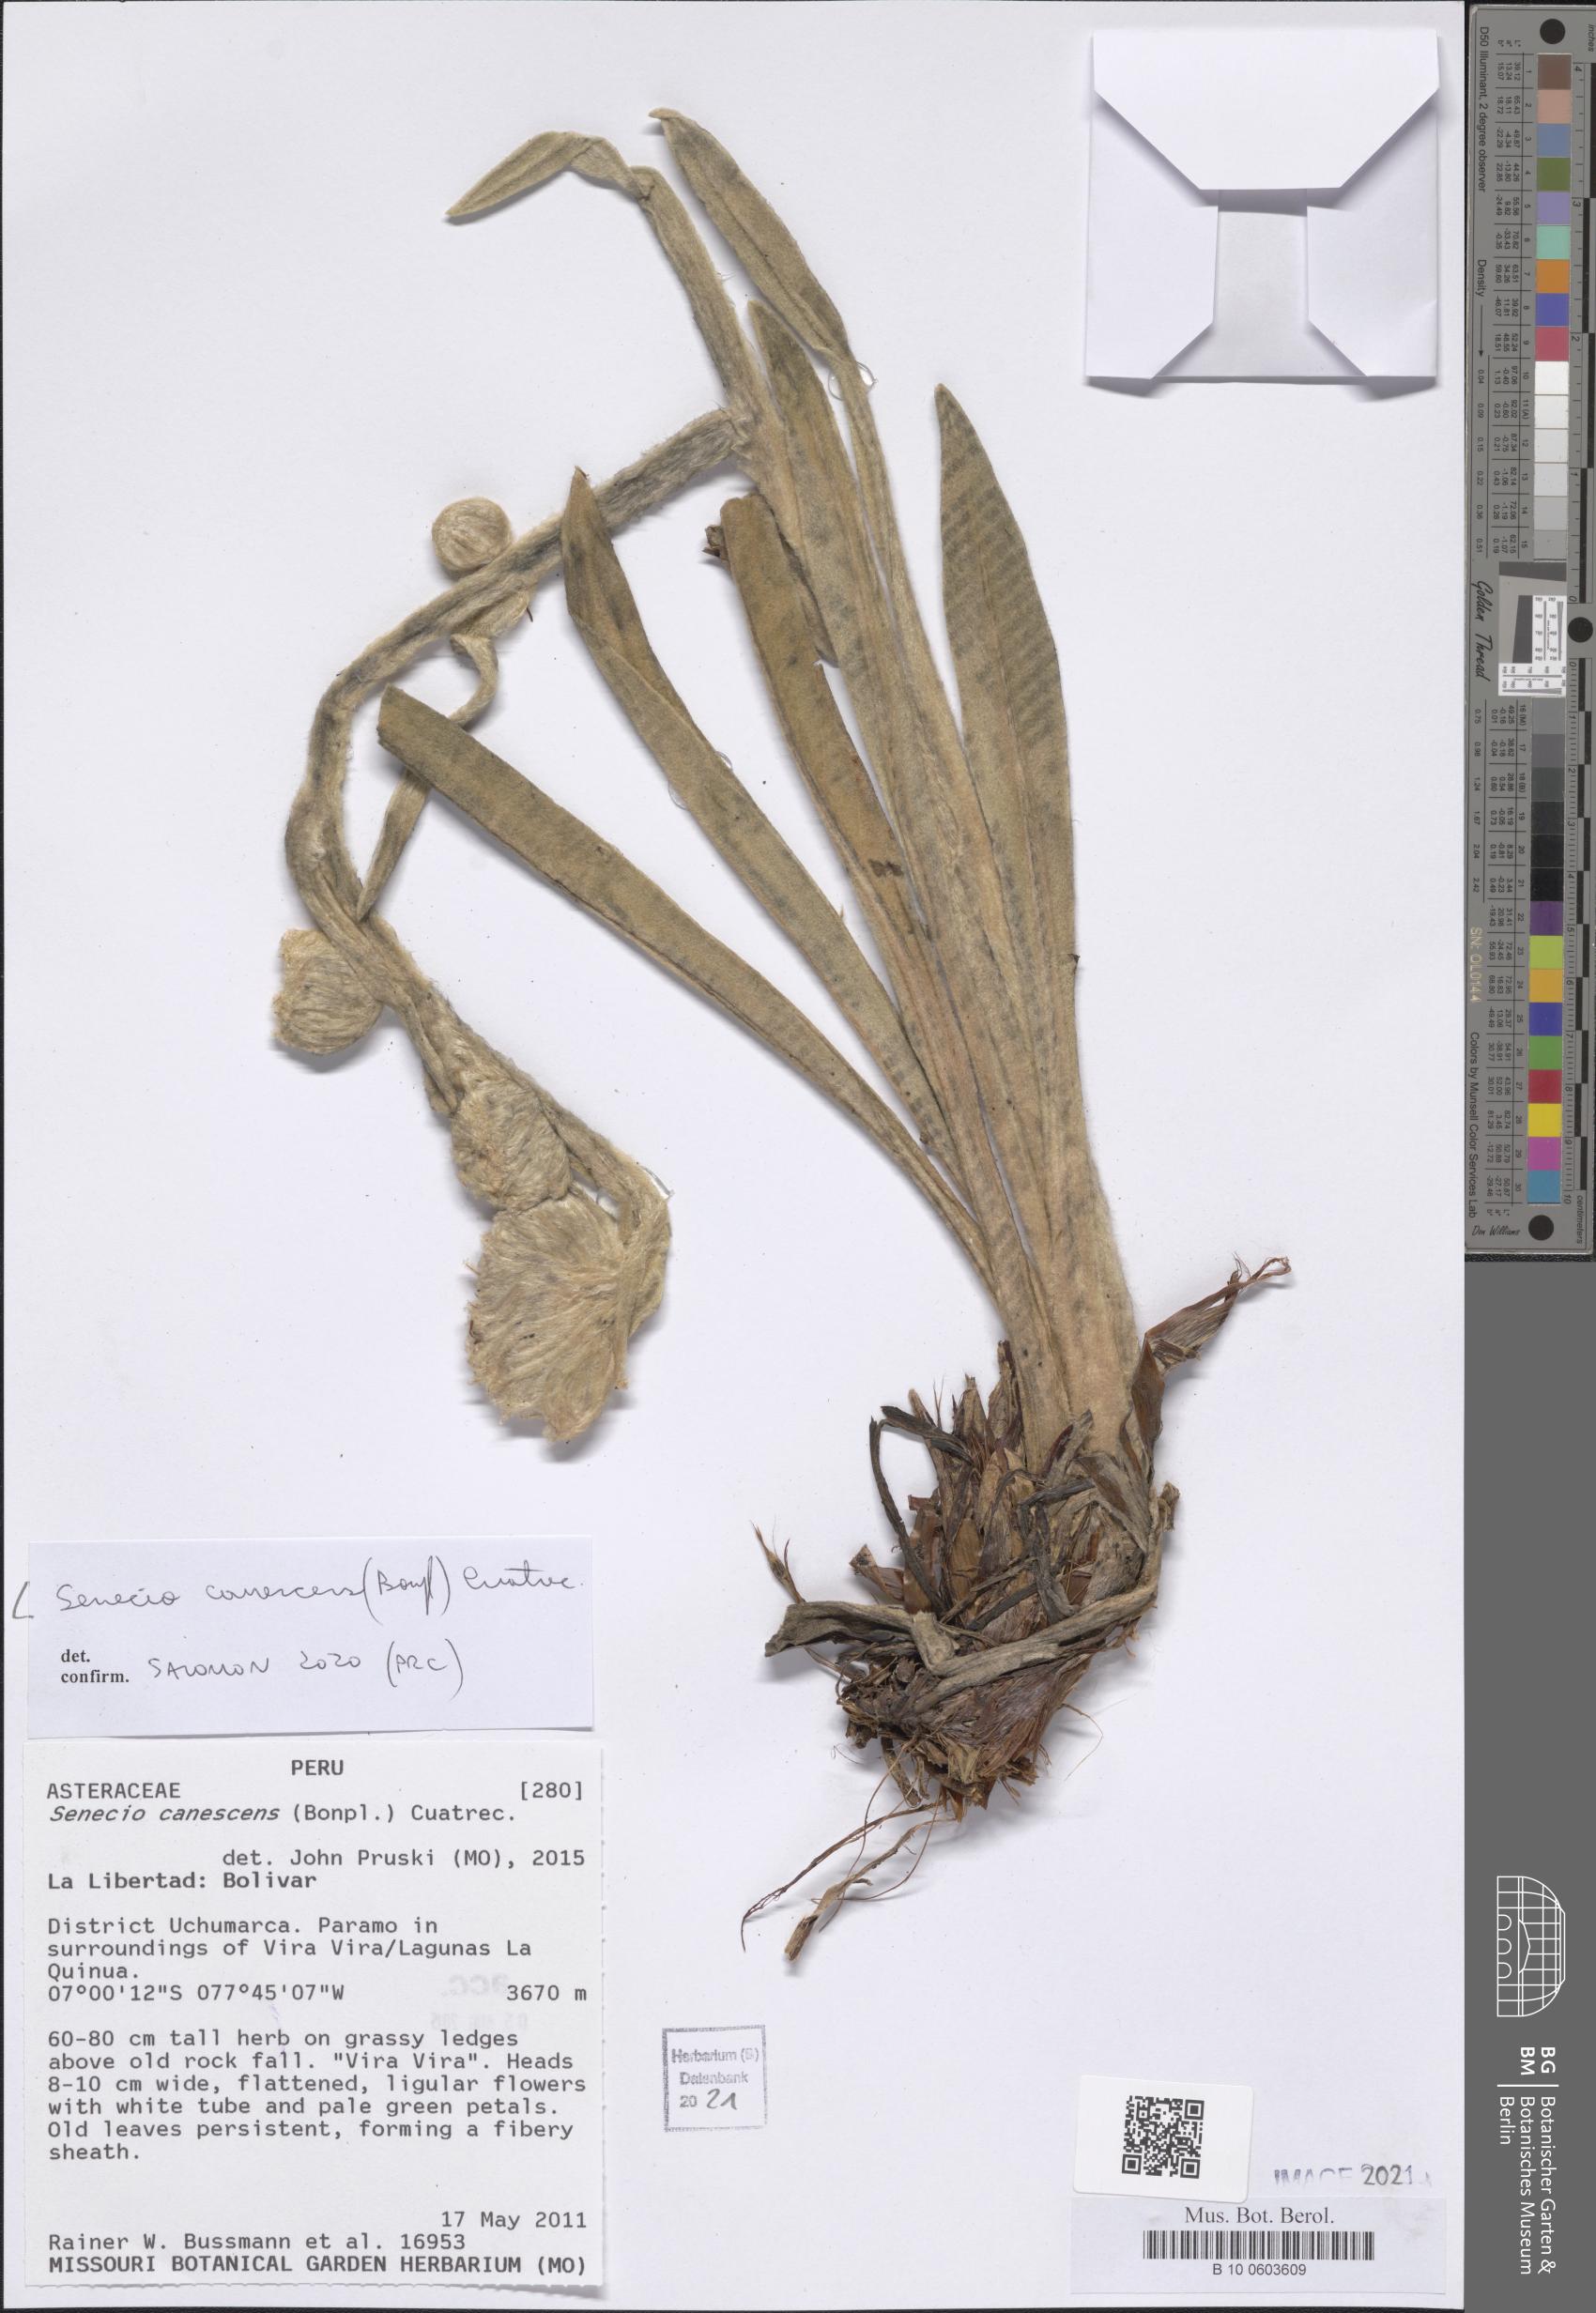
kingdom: Plantae
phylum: Tracheophyta
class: Magnoliopsida
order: Asterales
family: Asteraceae
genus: Culcitium
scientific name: Culcitium canescens
